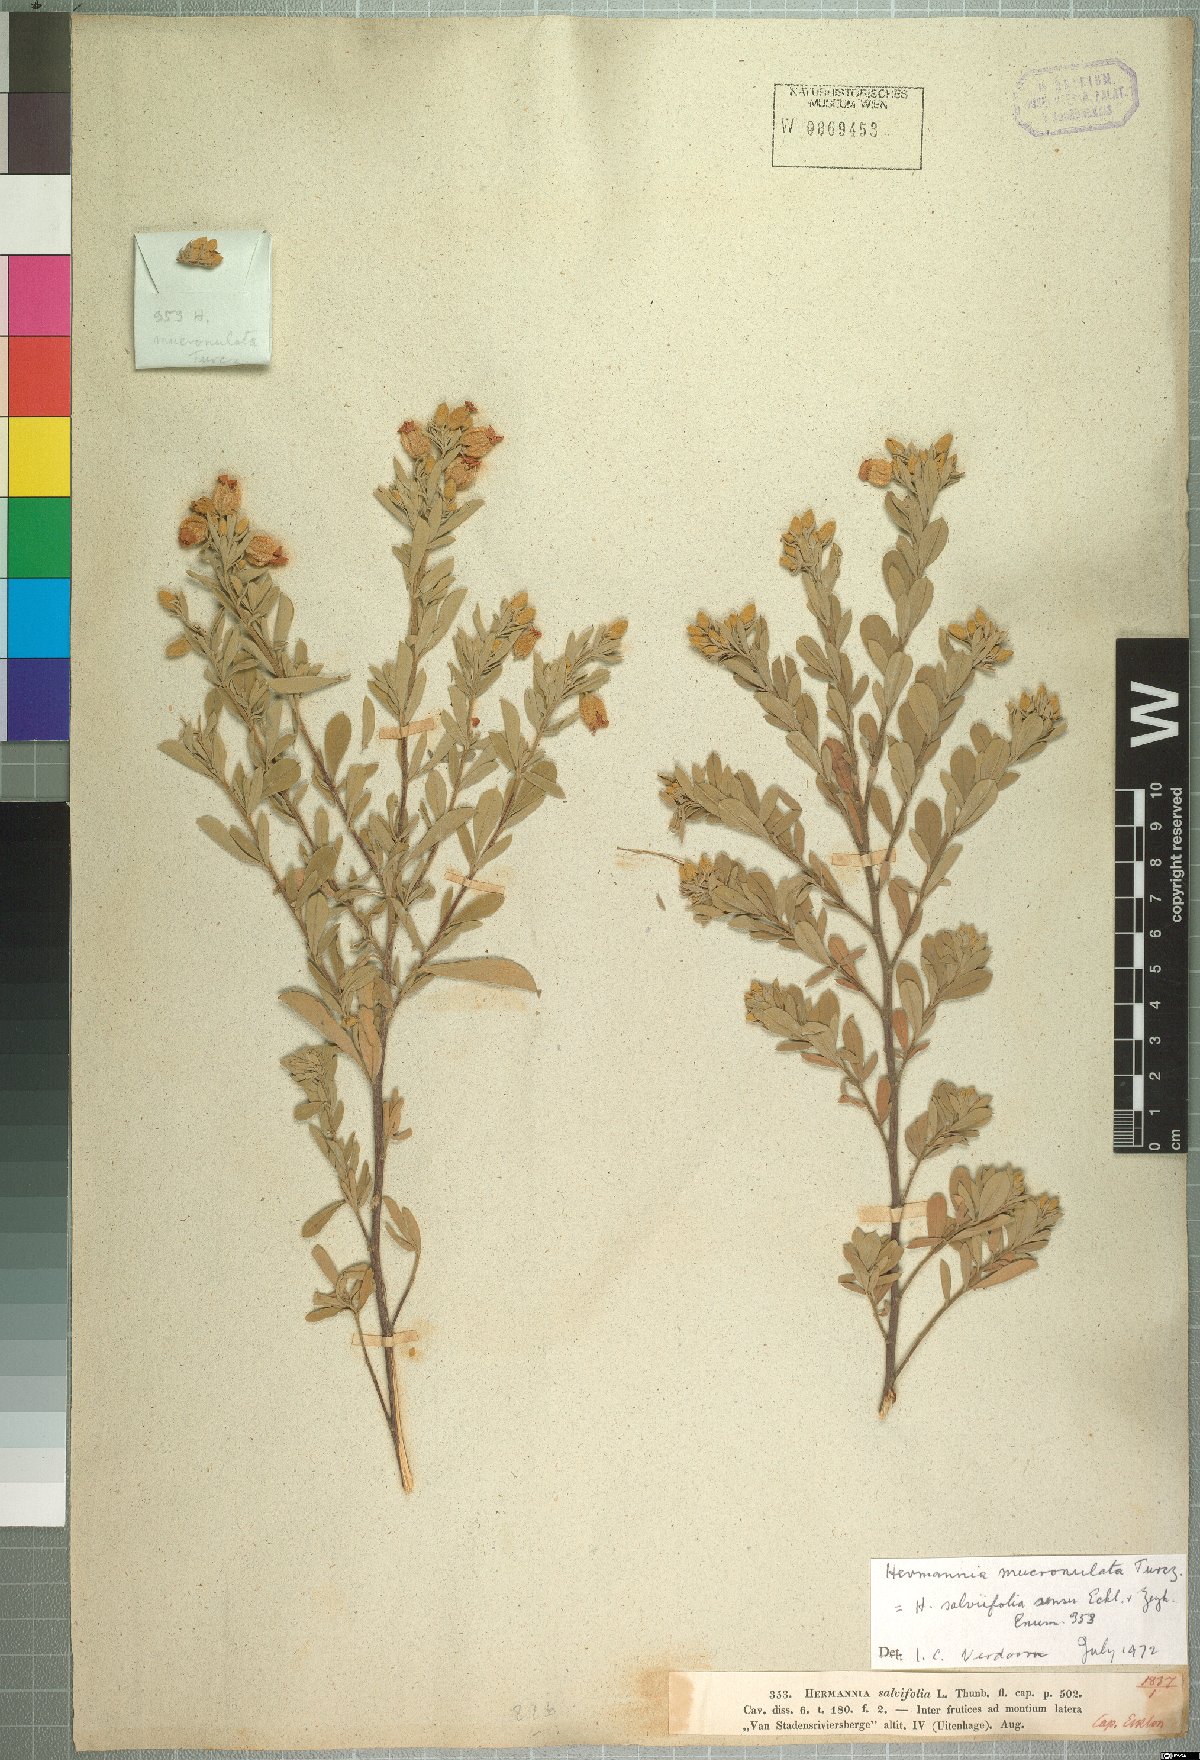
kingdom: Plantae
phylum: Tracheophyta
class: Magnoliopsida
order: Malvales
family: Malvaceae
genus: Hermannia
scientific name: Hermannia mucronulata
